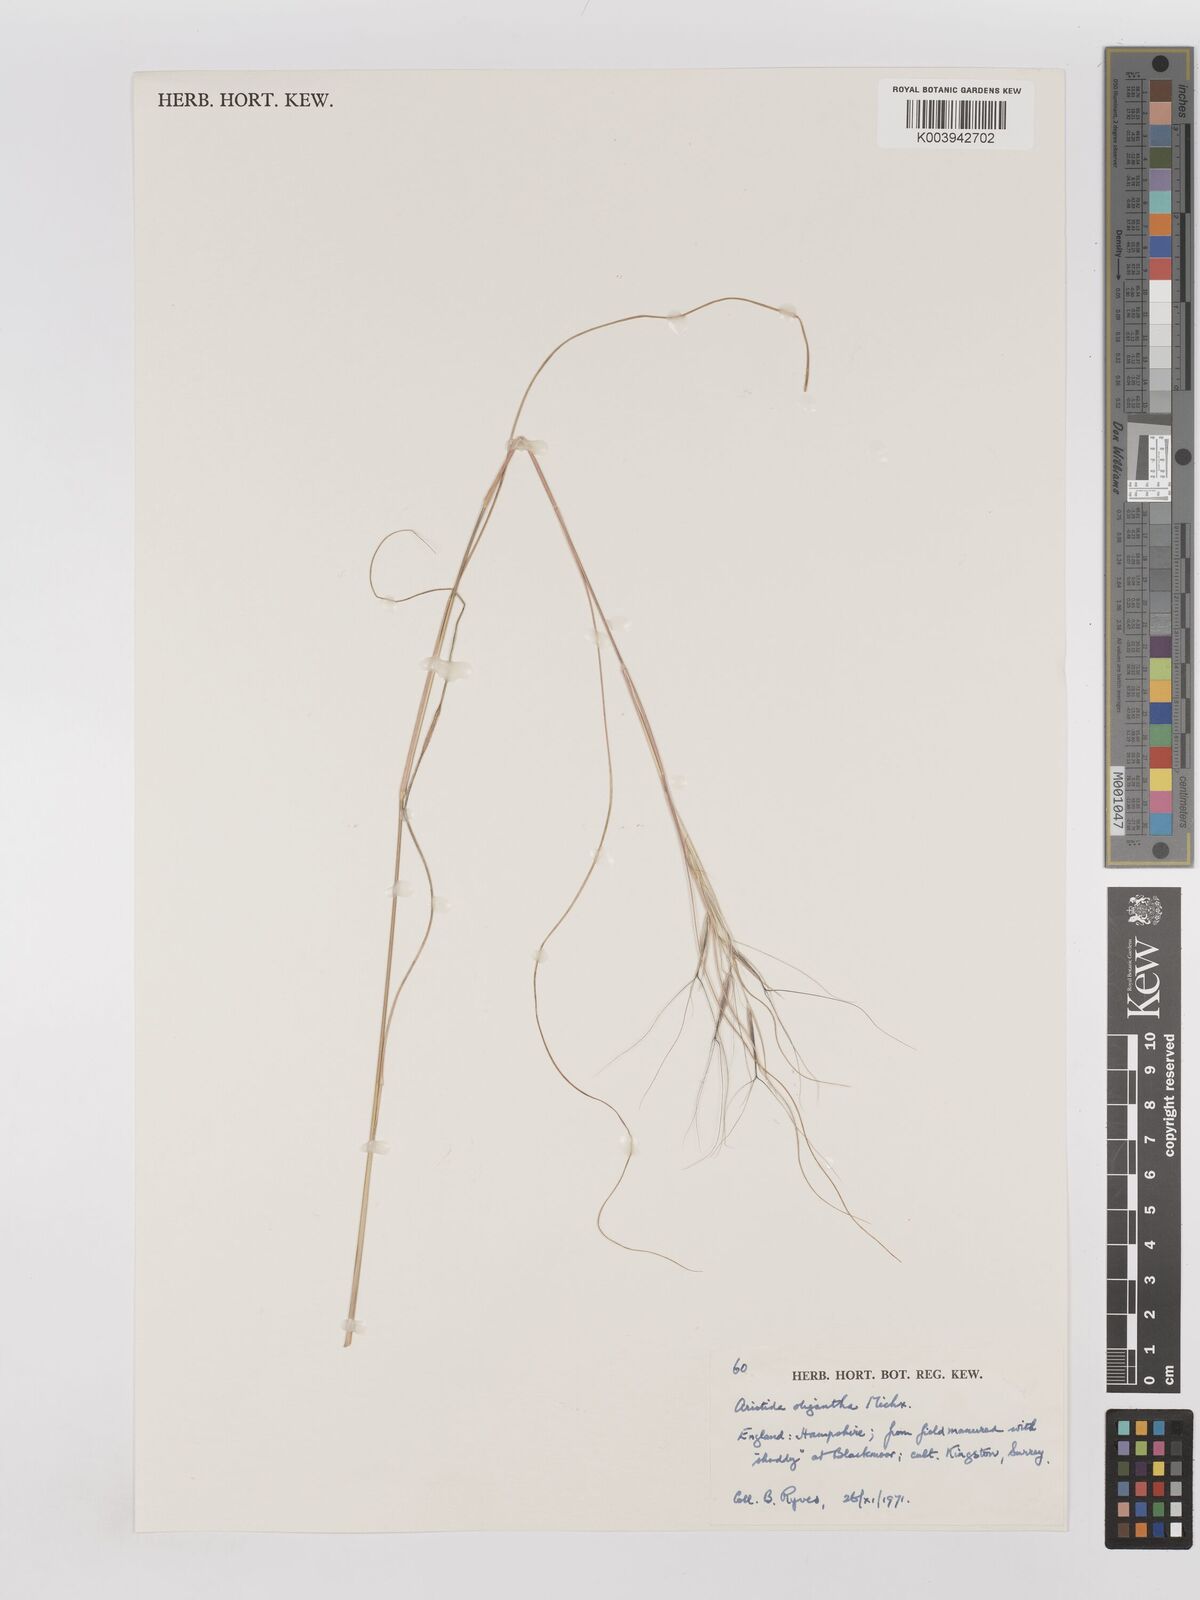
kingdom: Plantae
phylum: Tracheophyta
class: Liliopsida
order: Poales
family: Poaceae
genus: Aristida
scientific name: Aristida oligantha
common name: Few-flowered aristida
